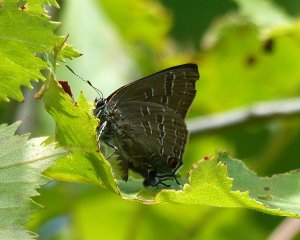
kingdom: Animalia
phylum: Arthropoda
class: Insecta
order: Lepidoptera
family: Lycaenidae
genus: Strymon
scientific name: Strymon caryaevorus
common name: Hickory Hairstreak
